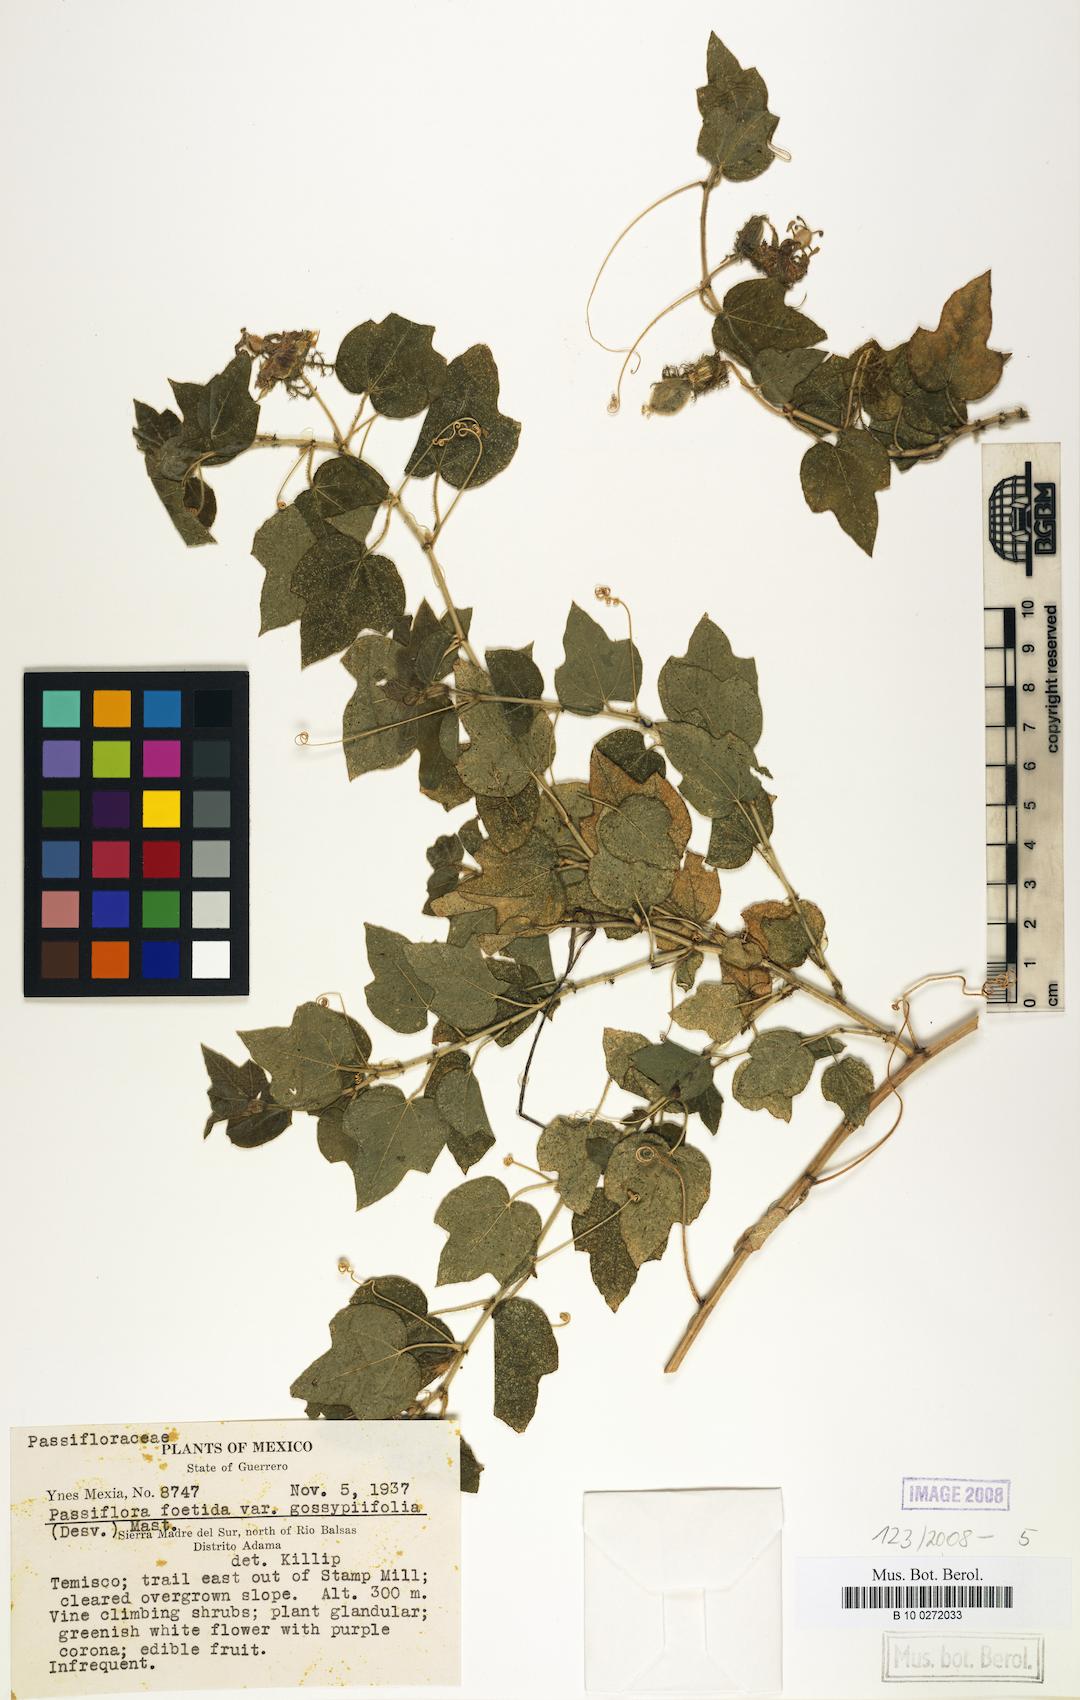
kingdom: Plantae
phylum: Tracheophyta
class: Magnoliopsida
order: Malpighiales
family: Passifloraceae
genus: Passiflora
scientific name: Passiflora foetida
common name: Fetid passionflower
